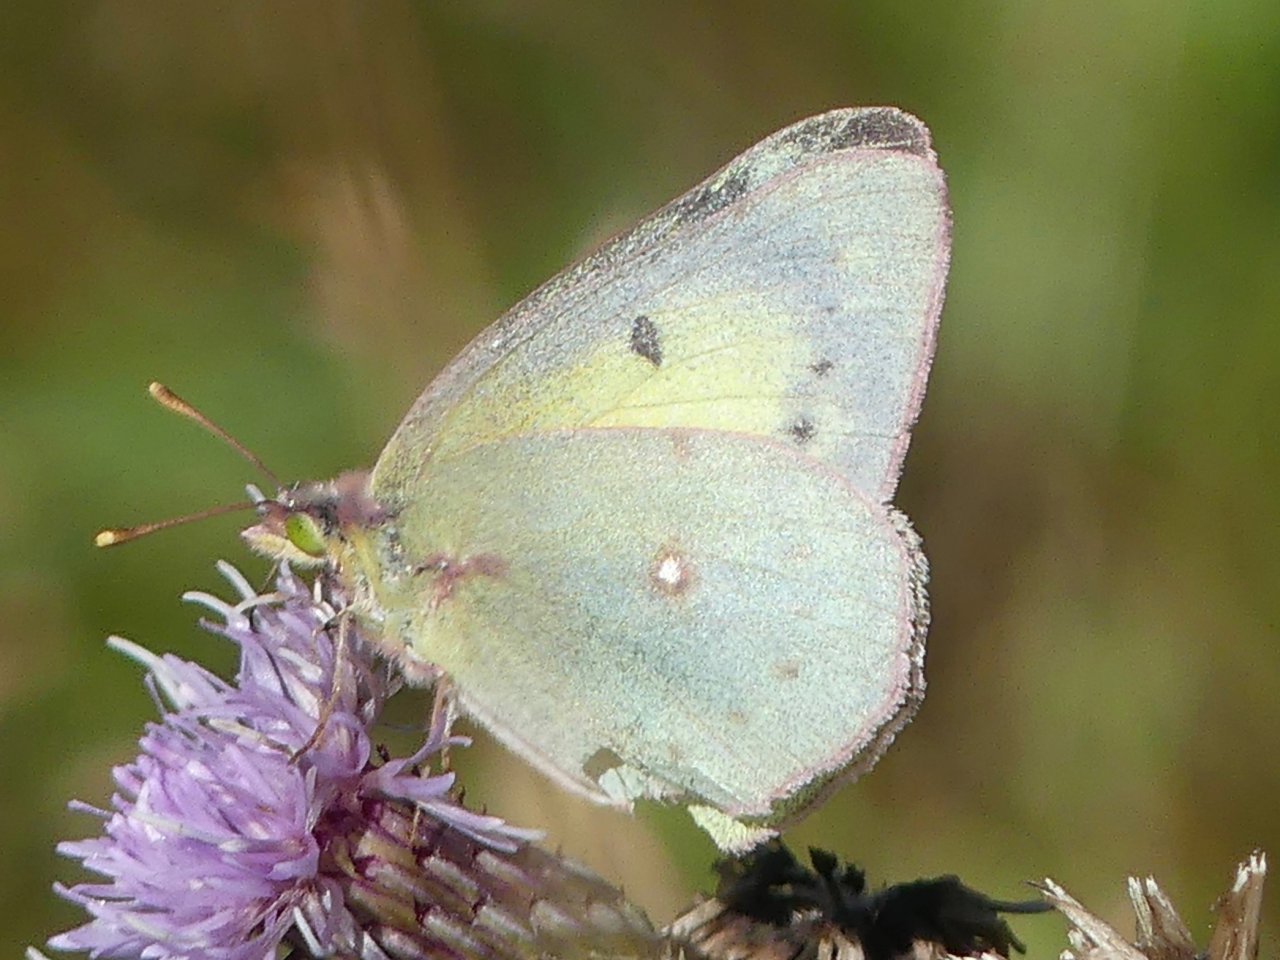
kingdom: Animalia
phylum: Arthropoda
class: Insecta
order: Lepidoptera
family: Pieridae
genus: Colias
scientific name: Colias philodice
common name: Clouded Sulphur
